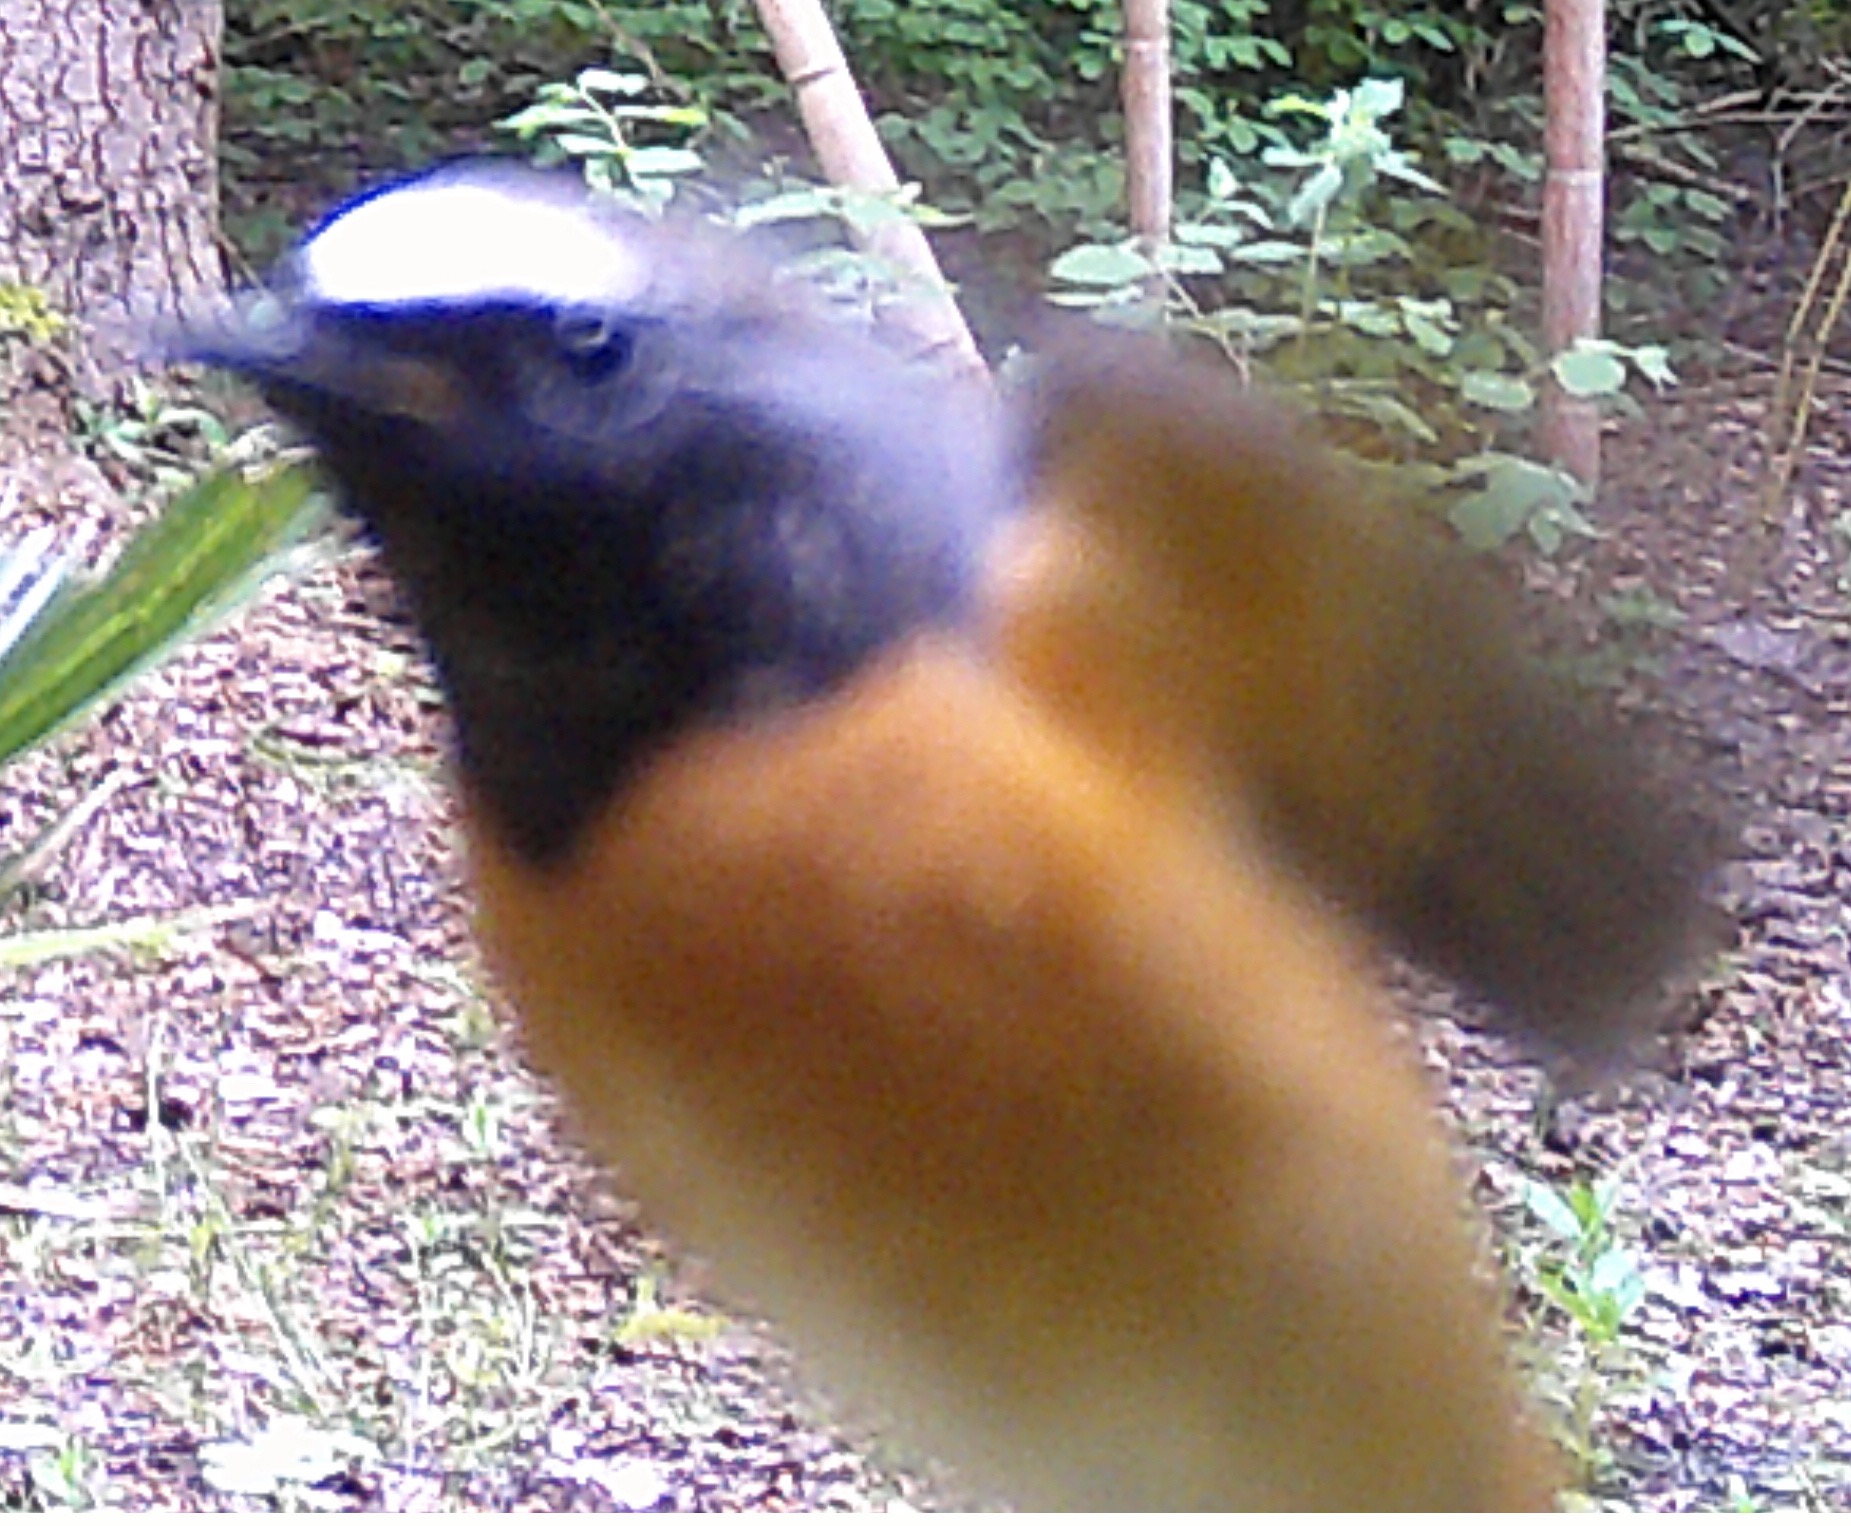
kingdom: Animalia
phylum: Chordata
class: Aves
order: Passeriformes
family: Muscicapidae
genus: Phoenicurus
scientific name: Phoenicurus phoenicurus
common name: Rødstjert
